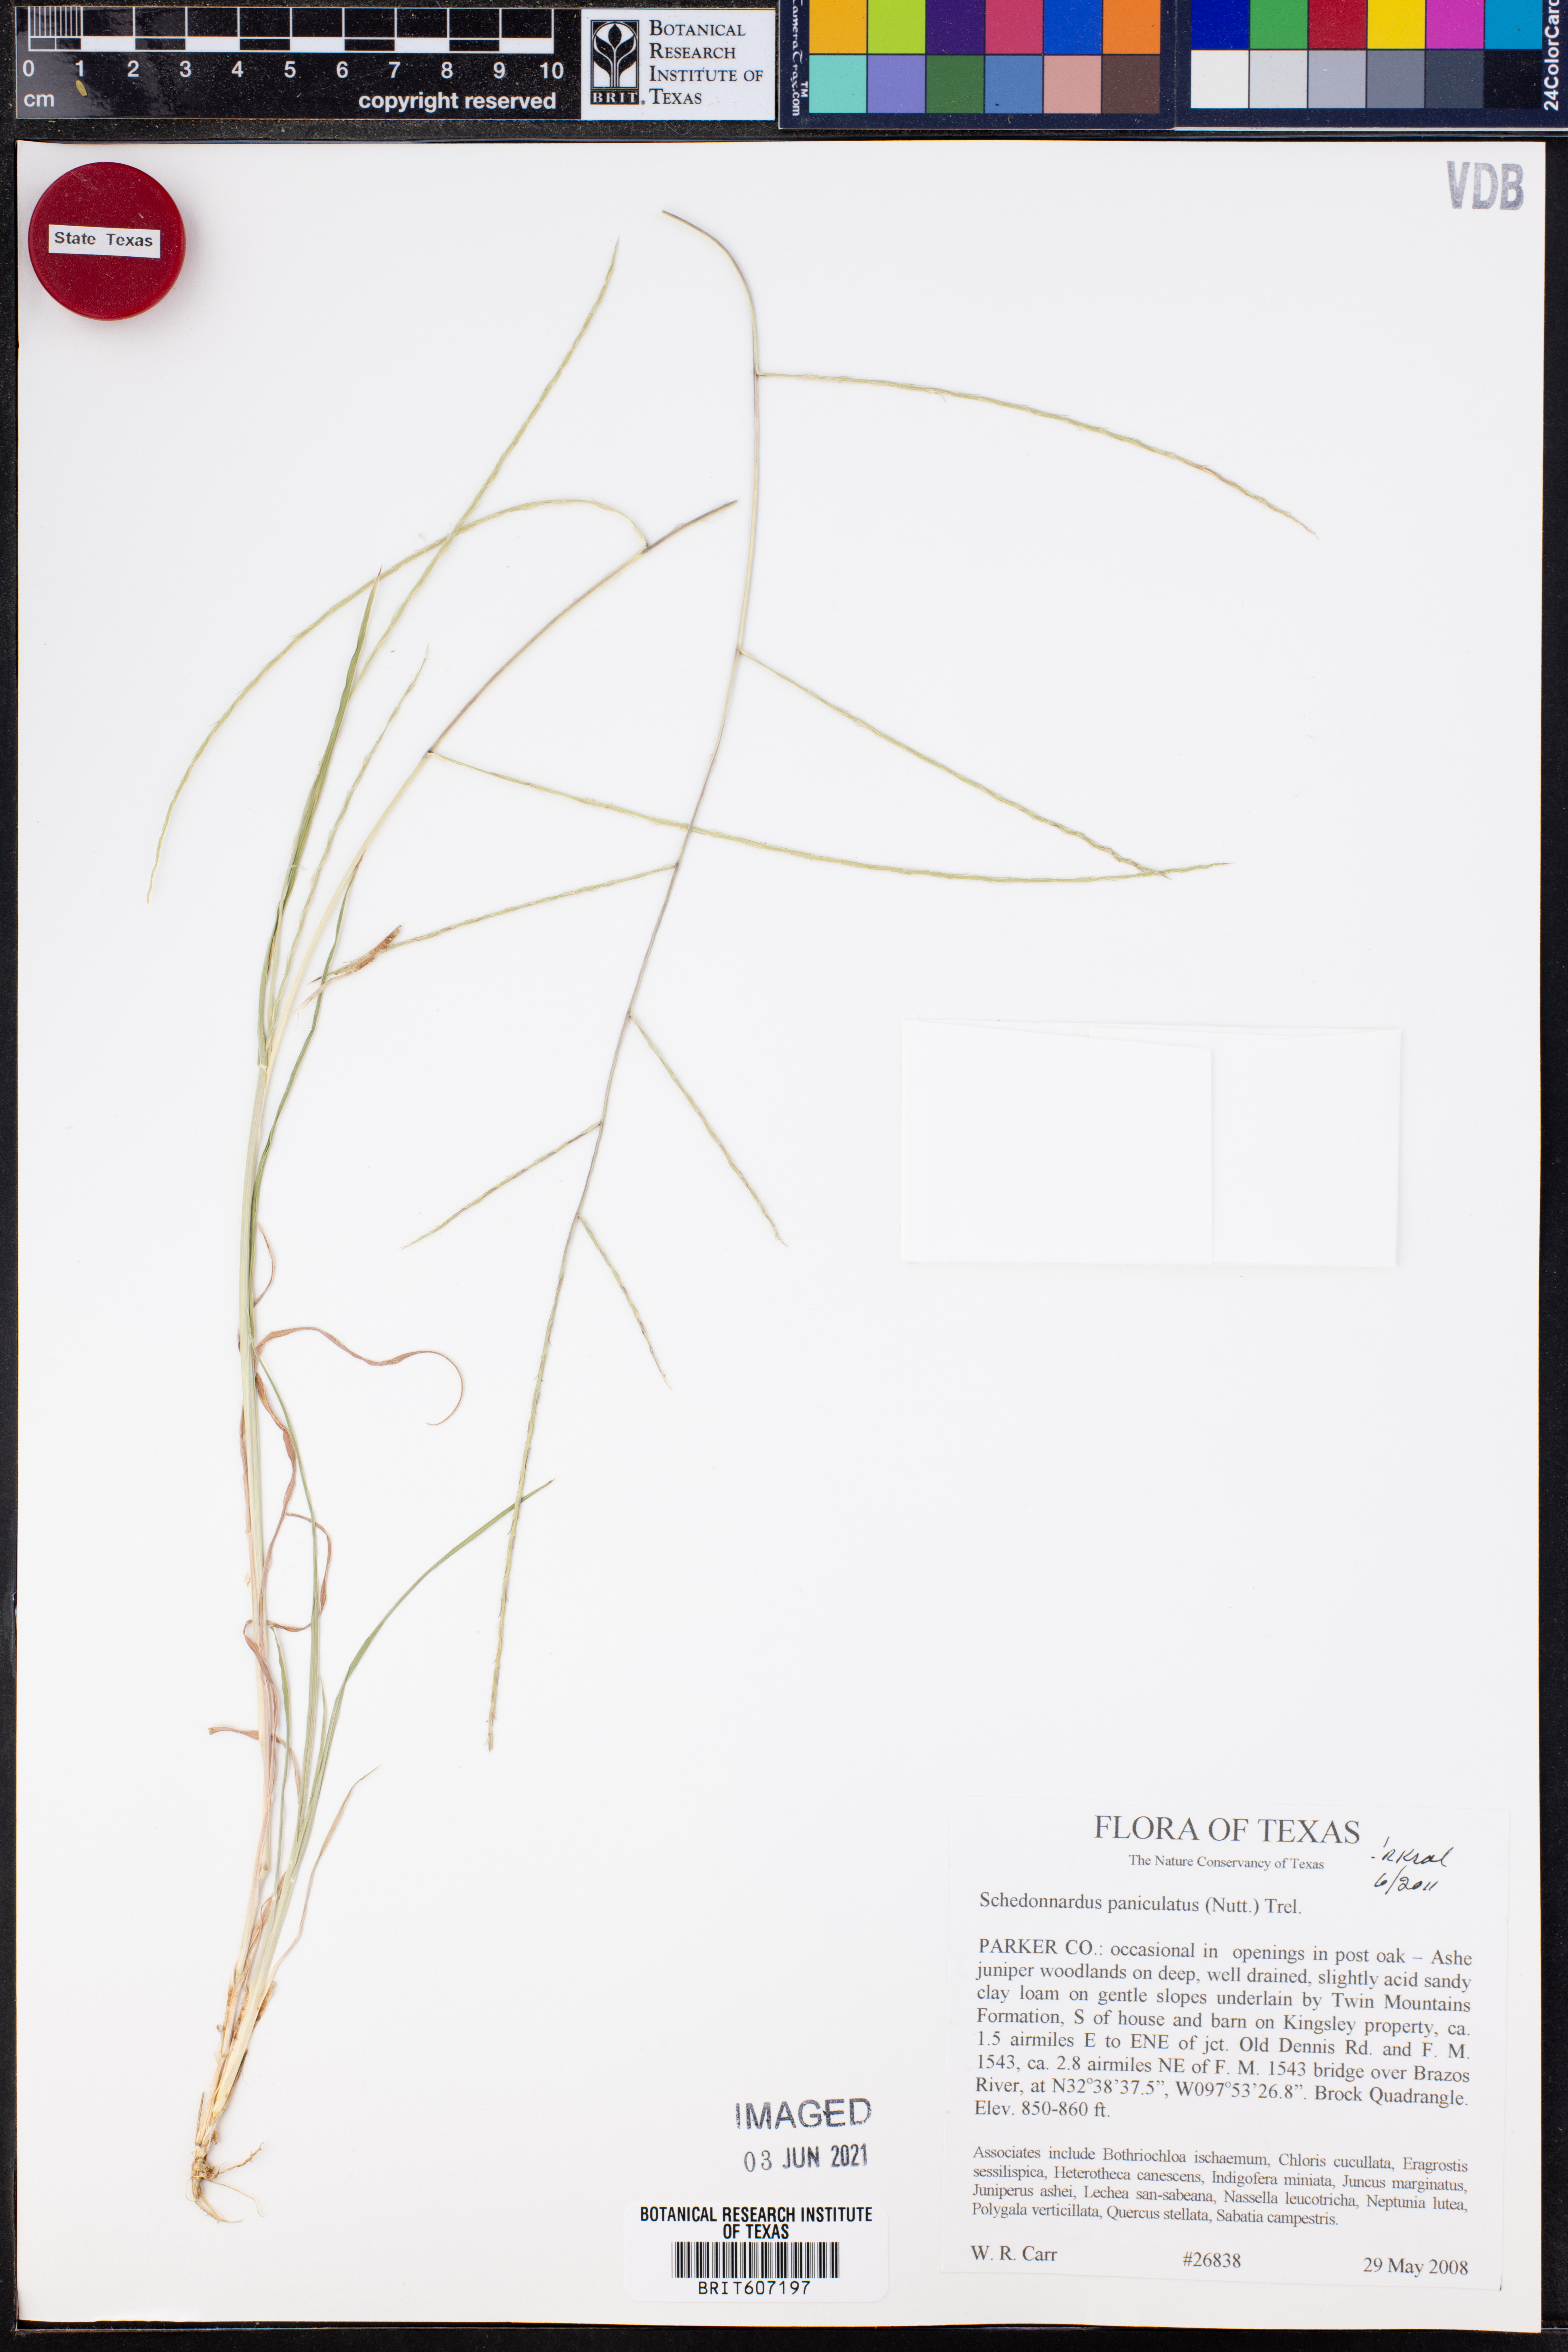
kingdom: Plantae
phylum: Tracheophyta
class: Liliopsida
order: Poales
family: Poaceae
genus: Muhlenbergia
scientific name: Muhlenbergia paniculata
